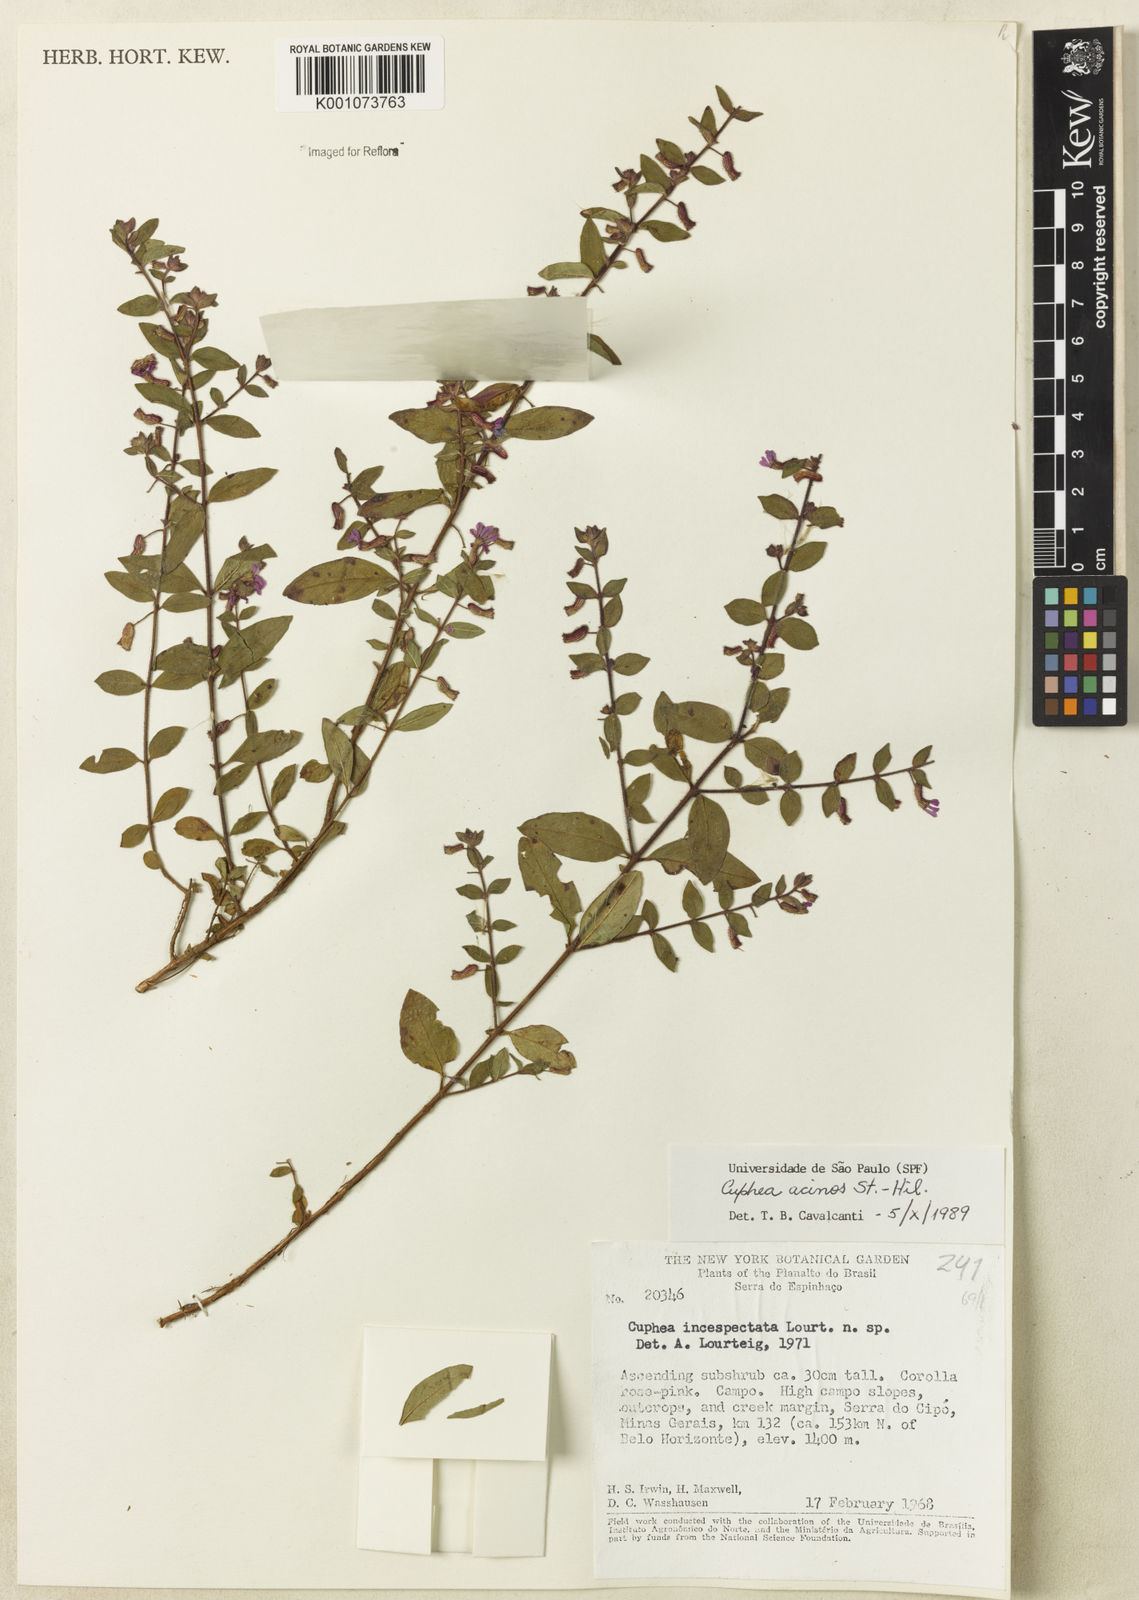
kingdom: Plantae
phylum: Tracheophyta
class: Magnoliopsida
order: Myrtales
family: Lythraceae
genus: Cuphea
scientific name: Cuphea acinos
